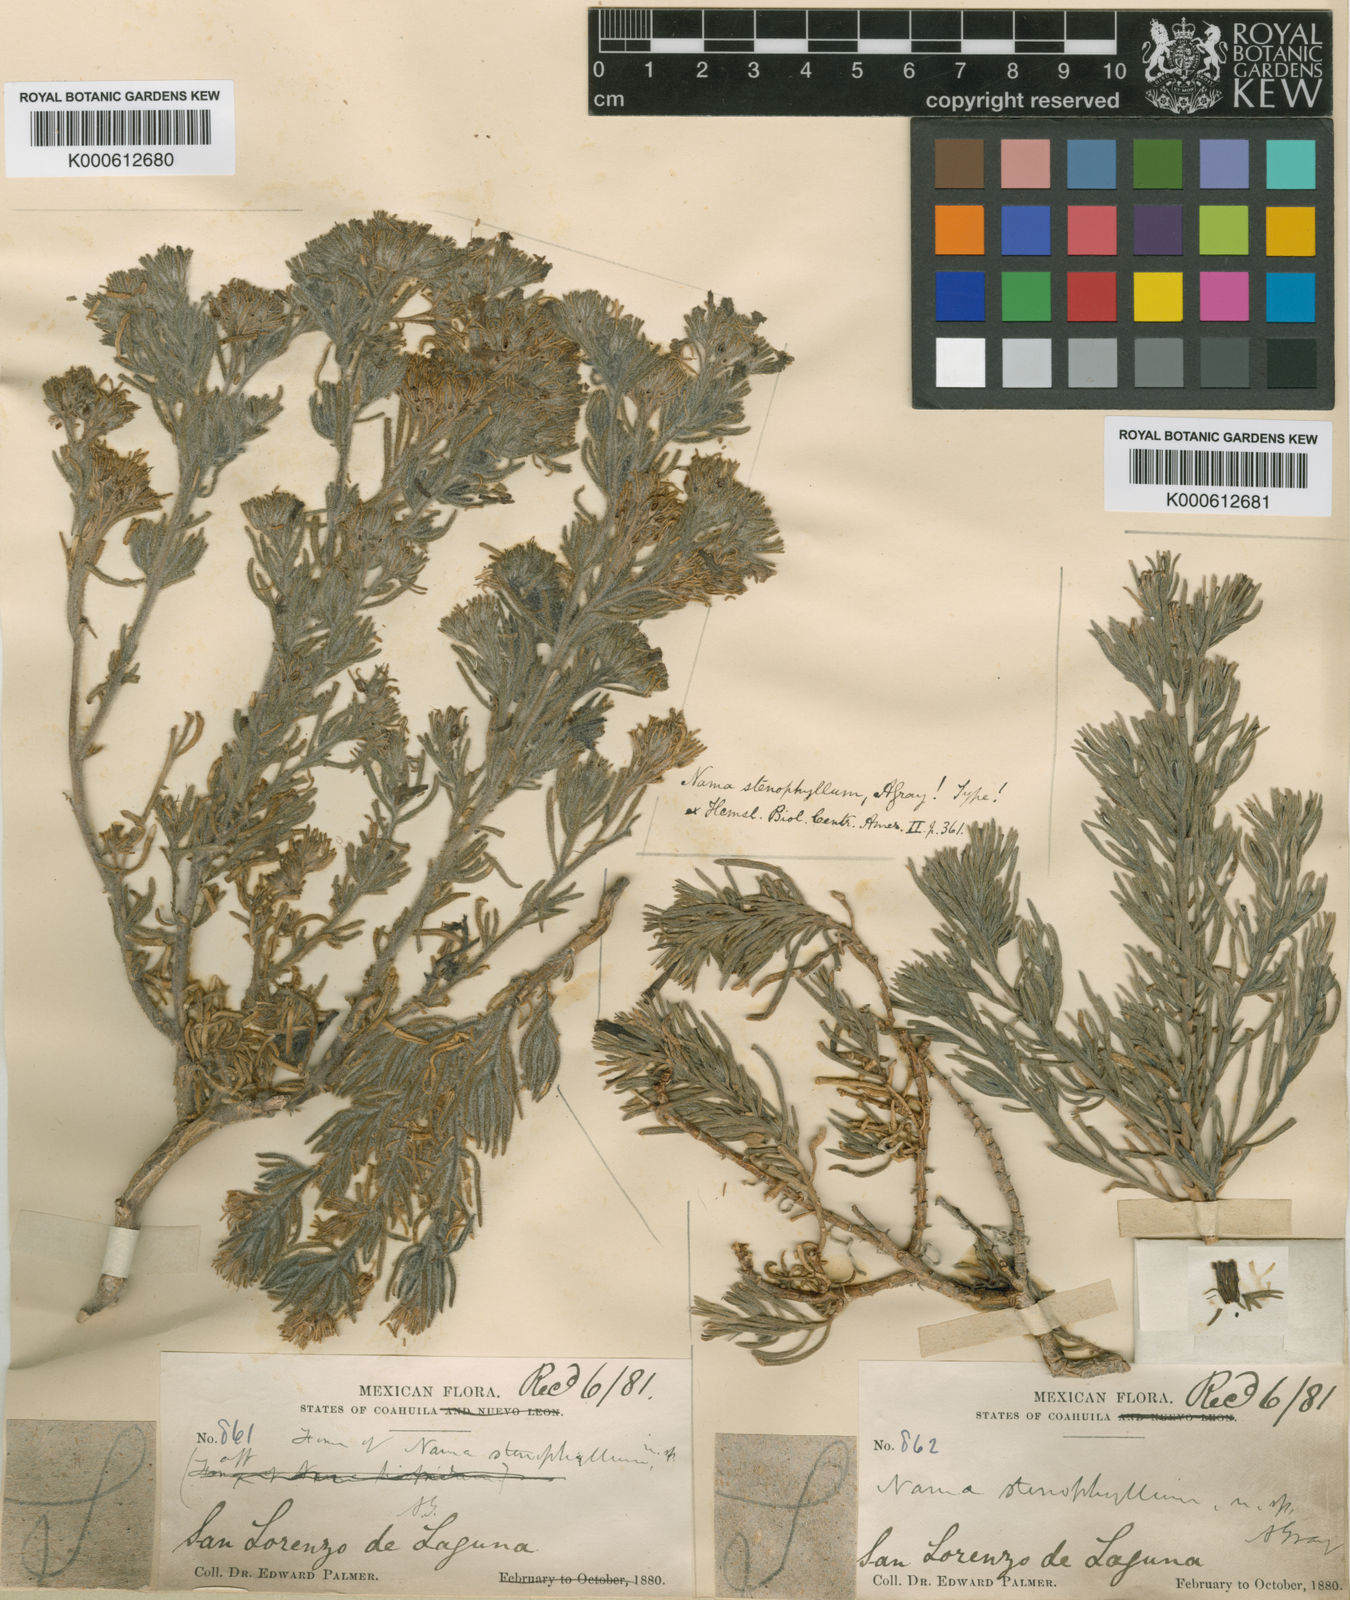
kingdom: Plantae
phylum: Tracheophyta
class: Magnoliopsida
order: Boraginales
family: Namaceae
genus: Nama
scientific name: Nama
